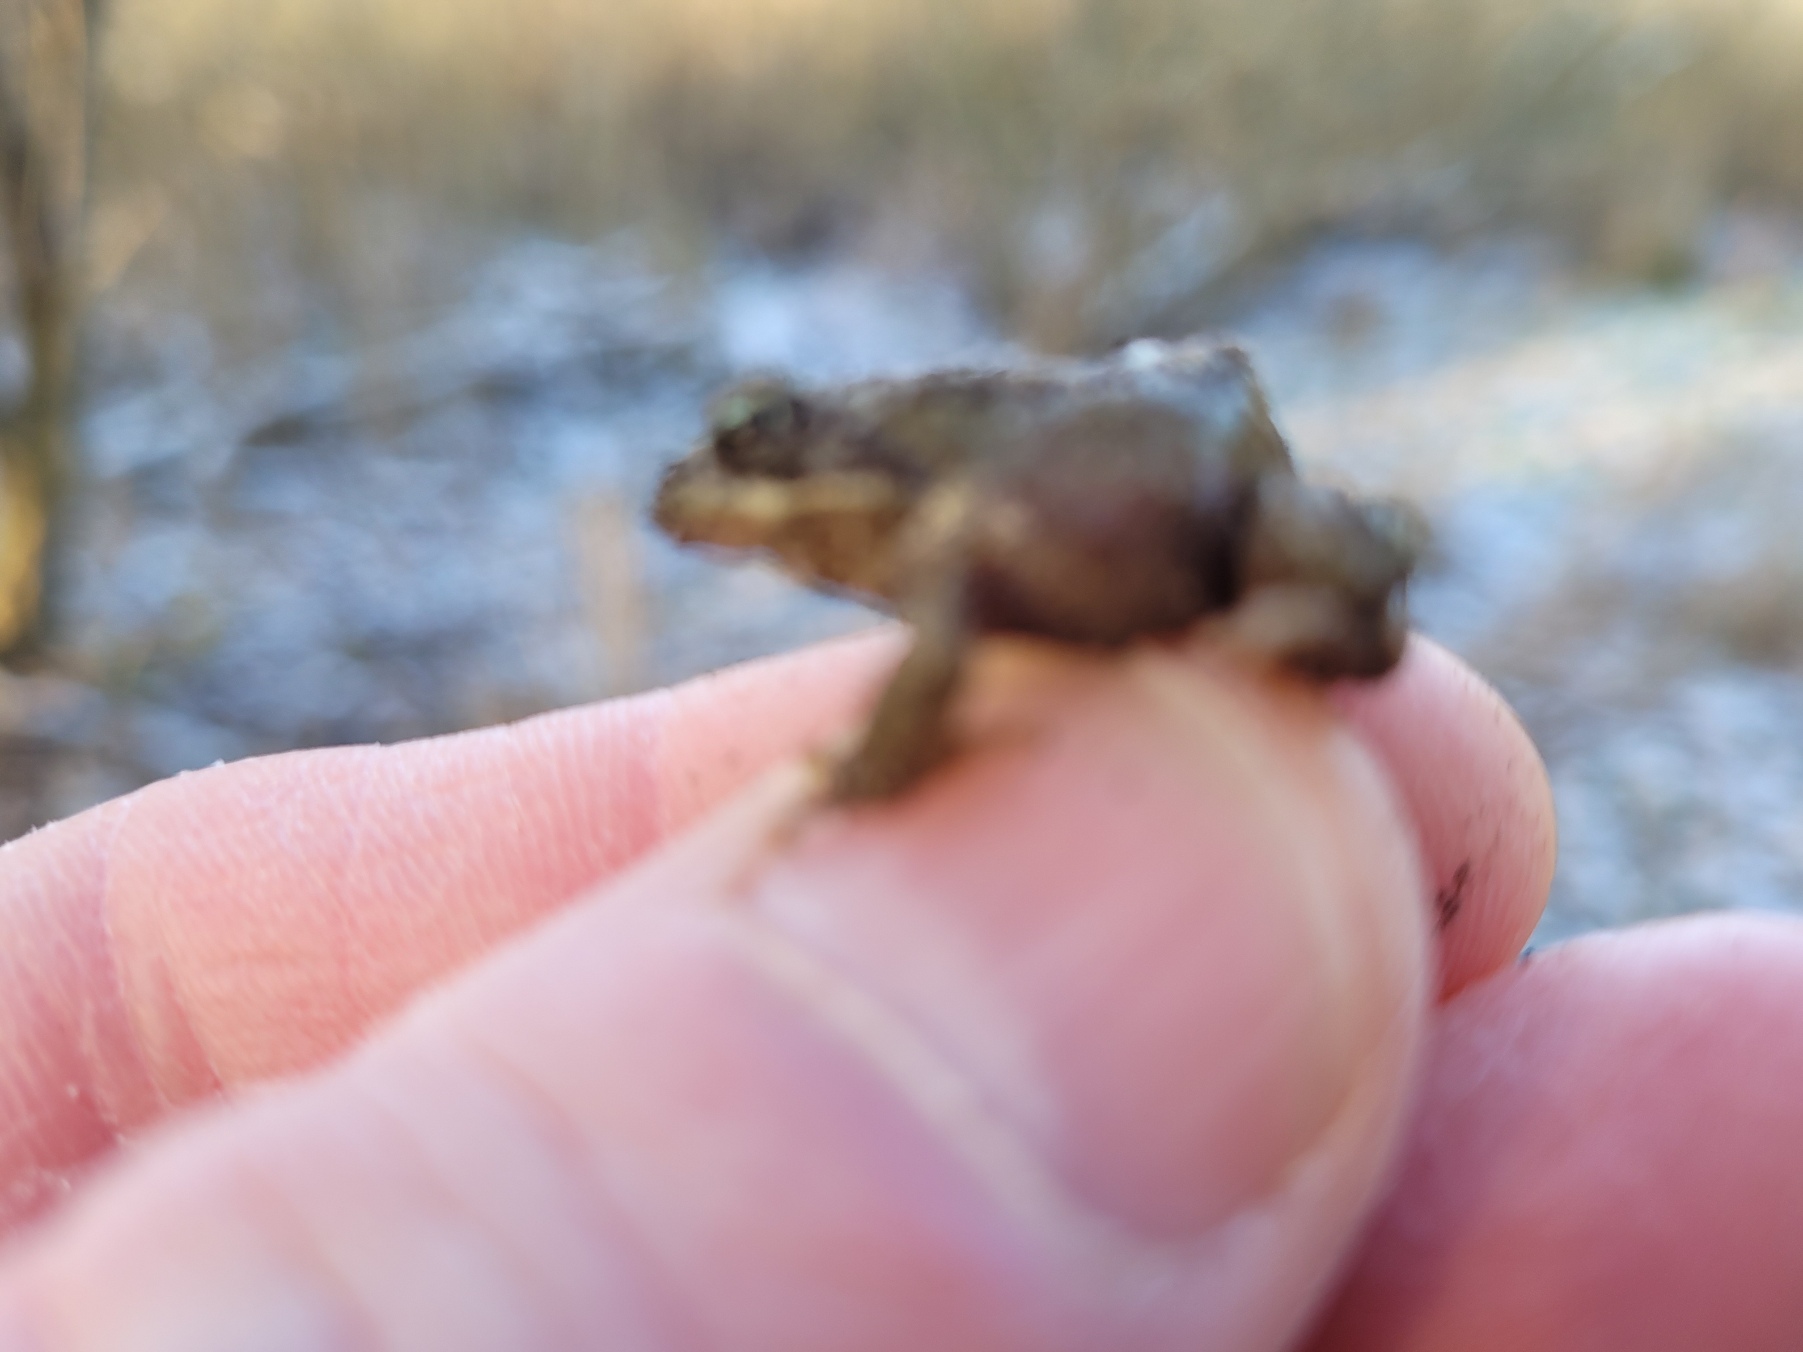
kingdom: Animalia
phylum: Chordata
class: Amphibia
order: Anura
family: Ranidae
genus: Rana
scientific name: Rana temporaria
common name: Butsnudet frø
